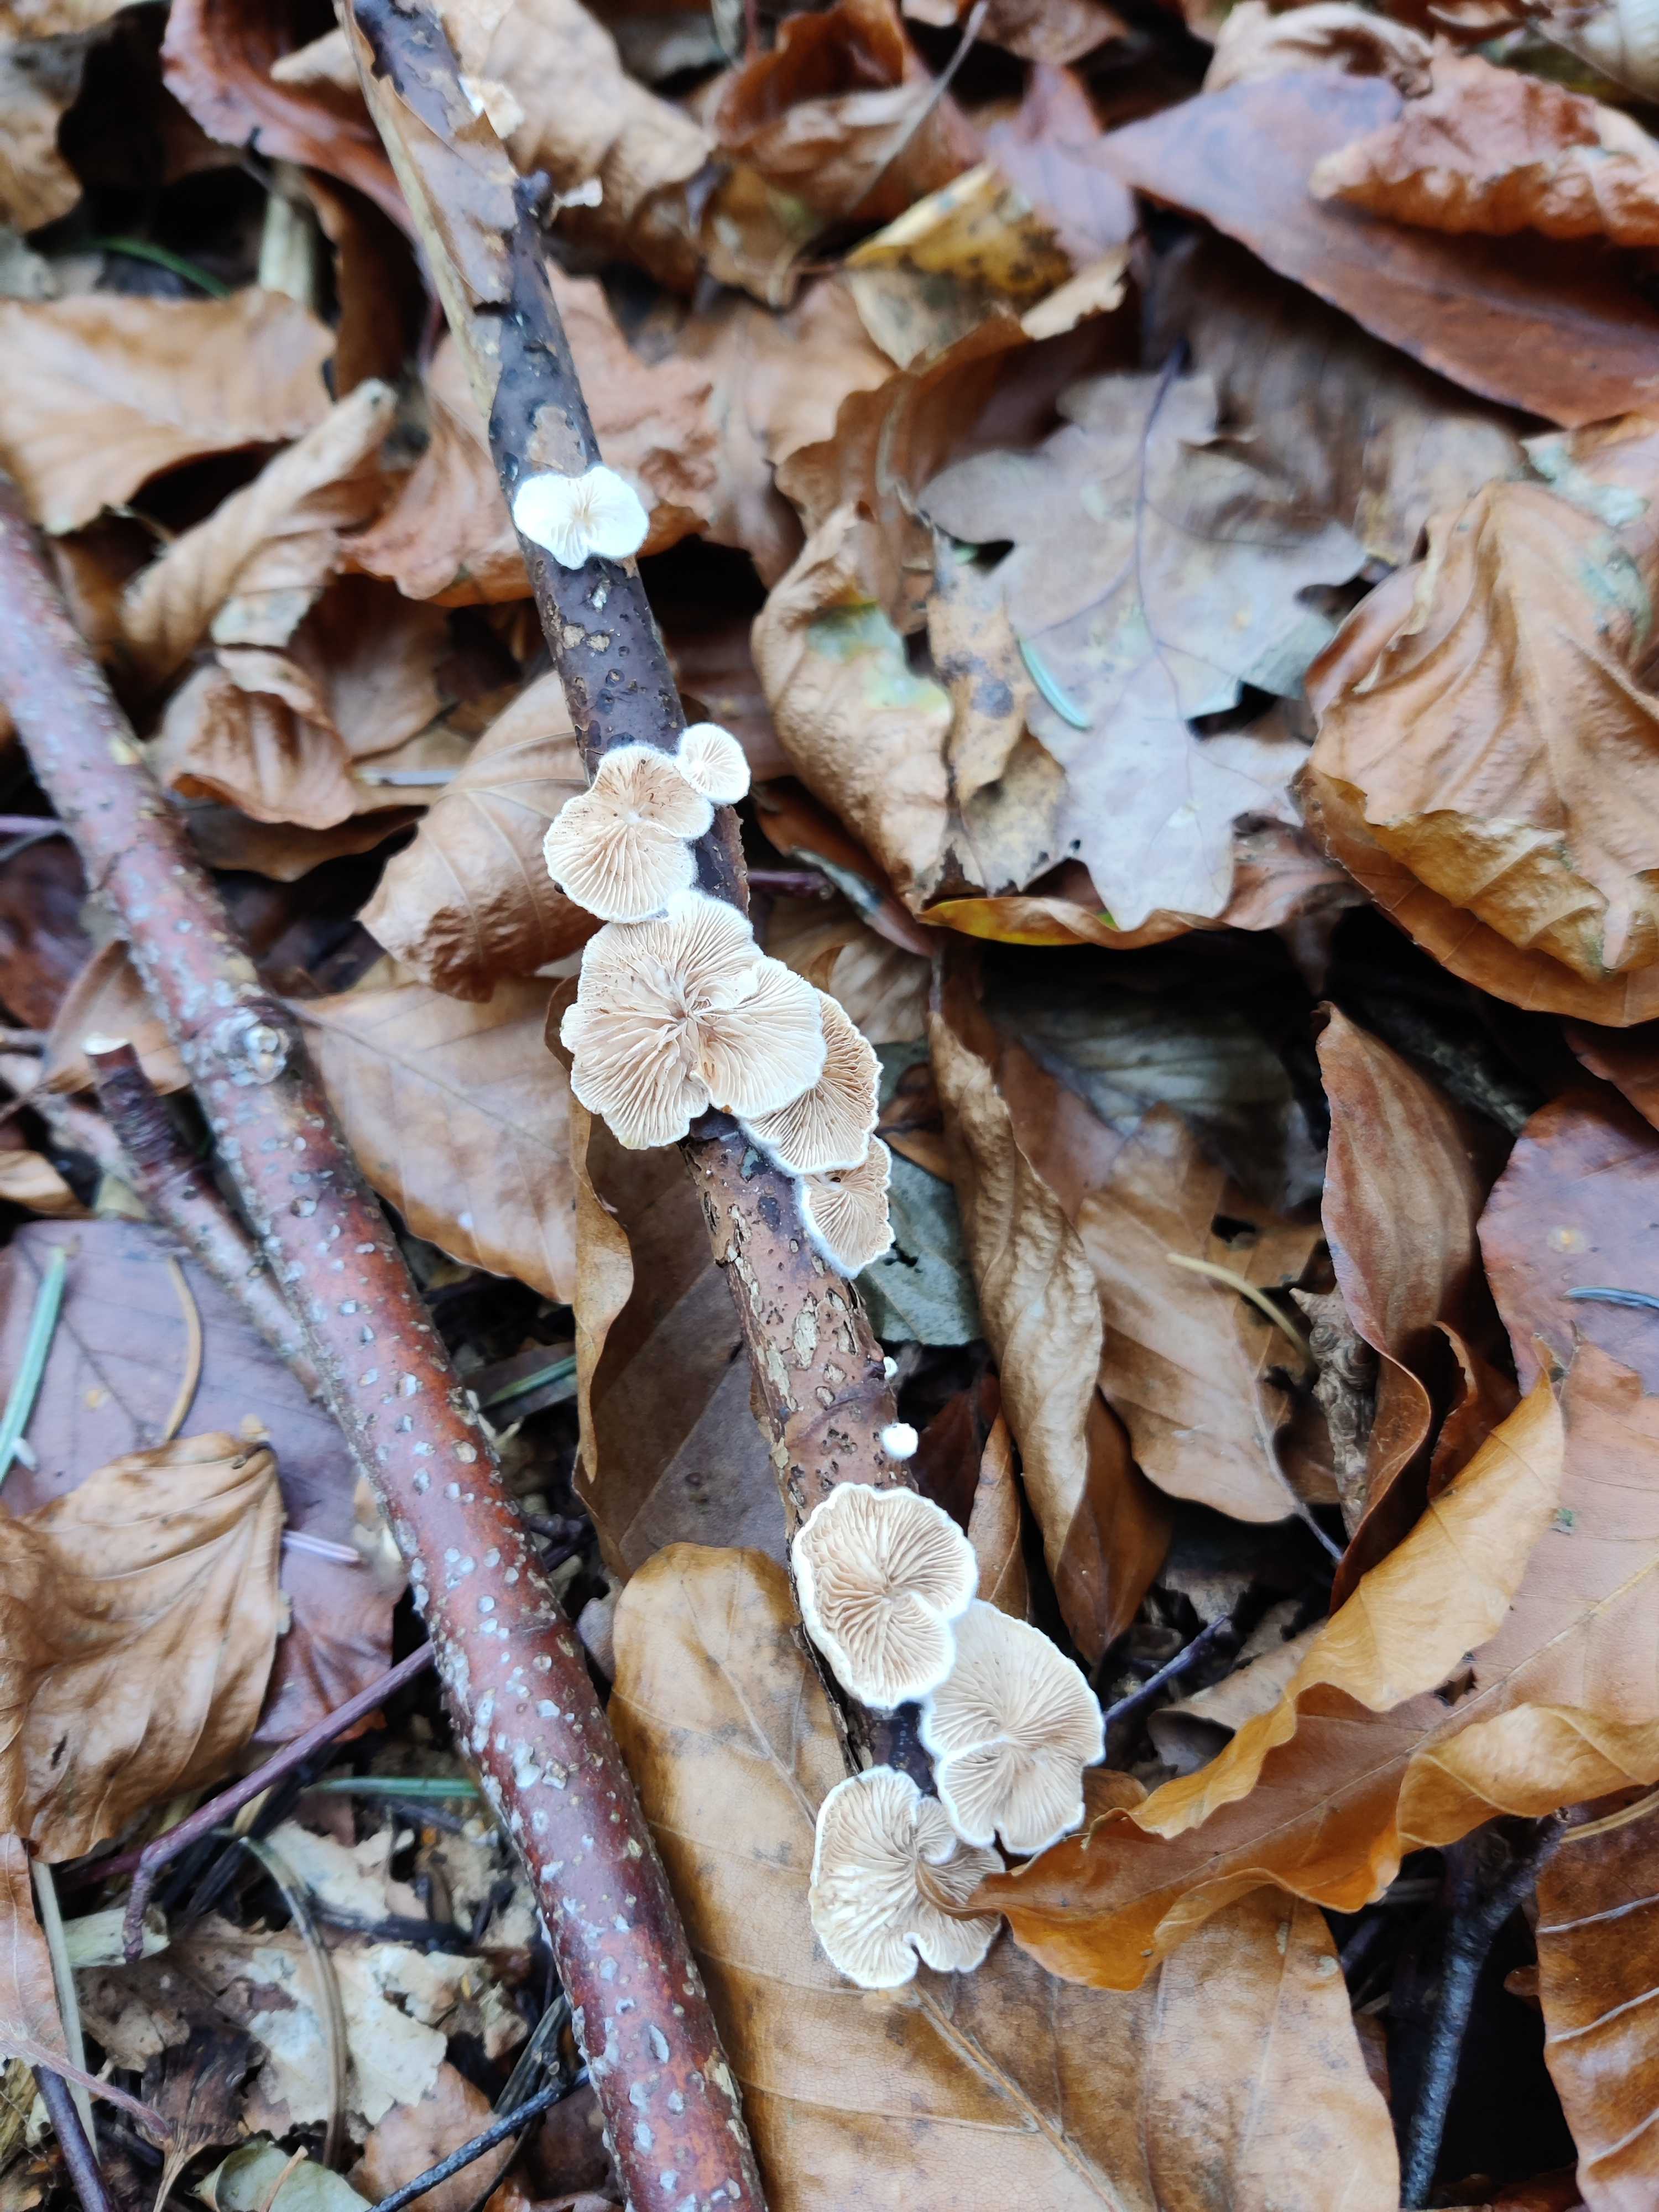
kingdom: Fungi
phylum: Basidiomycota
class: Agaricomycetes
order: Agaricales
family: Crepidotaceae
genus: Crepidotus
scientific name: Crepidotus
